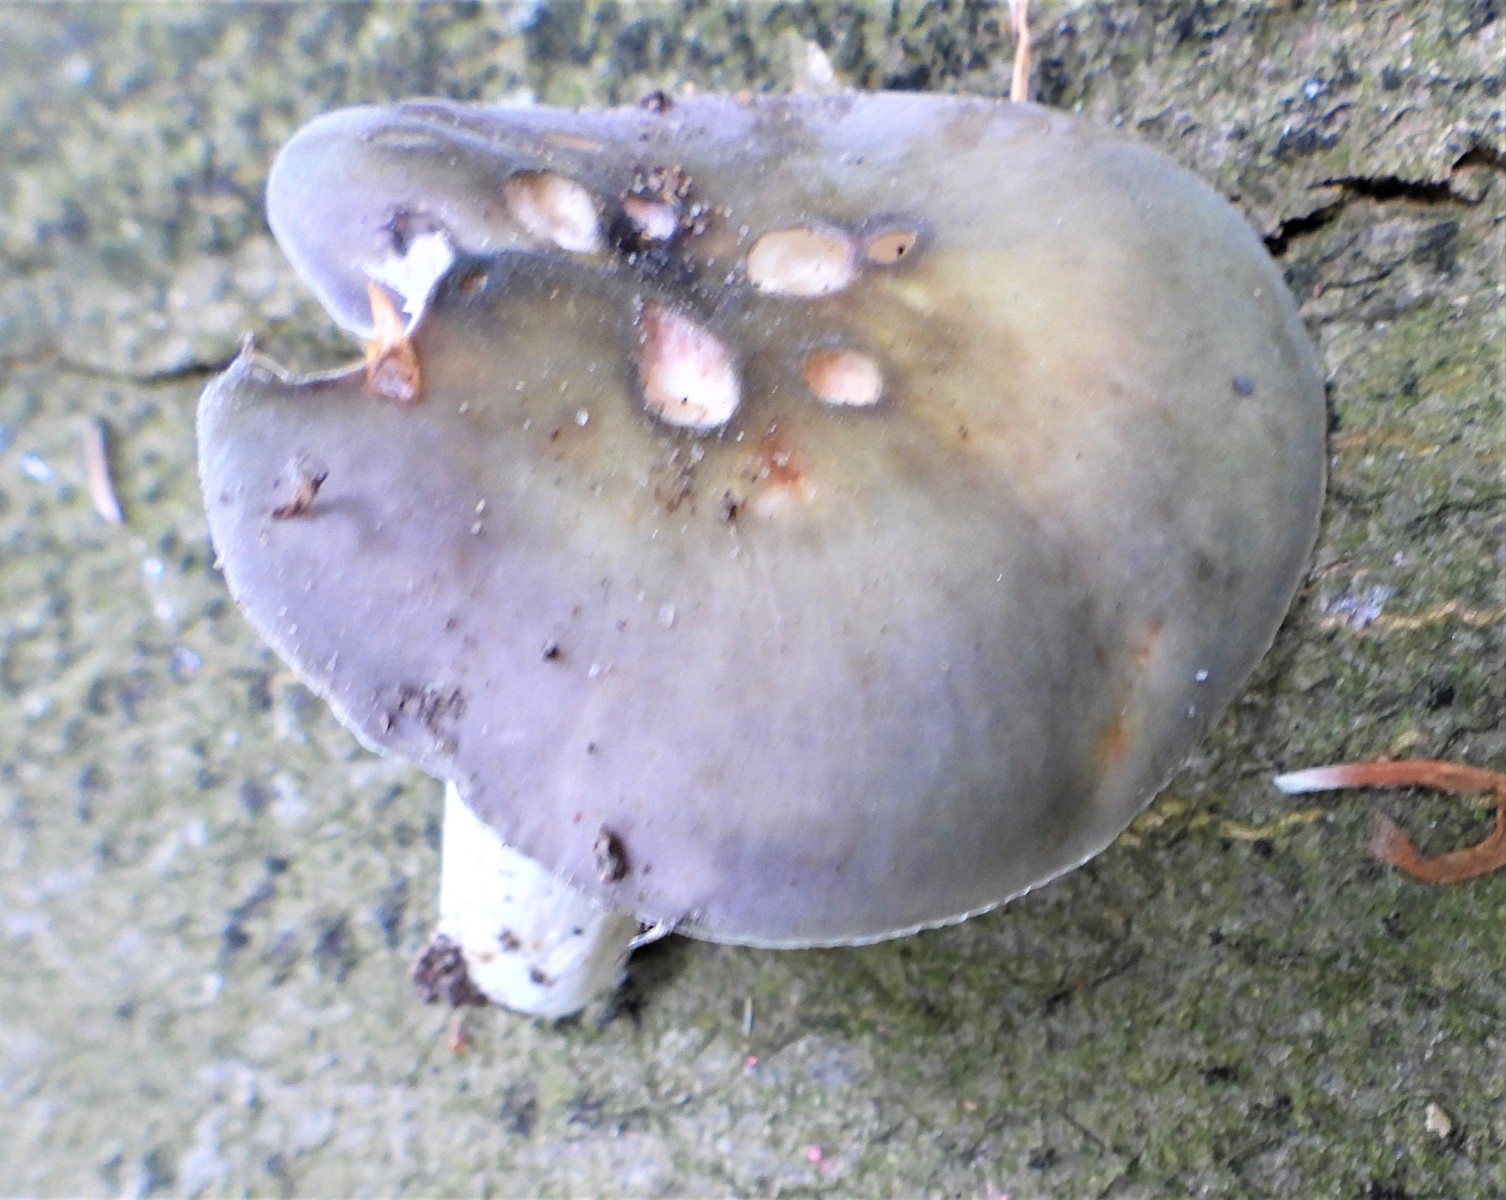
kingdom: Fungi
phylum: Basidiomycota
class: Agaricomycetes
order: Russulales
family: Russulaceae
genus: Russula
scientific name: Russula ionochlora
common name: violetgrøn skørhat
